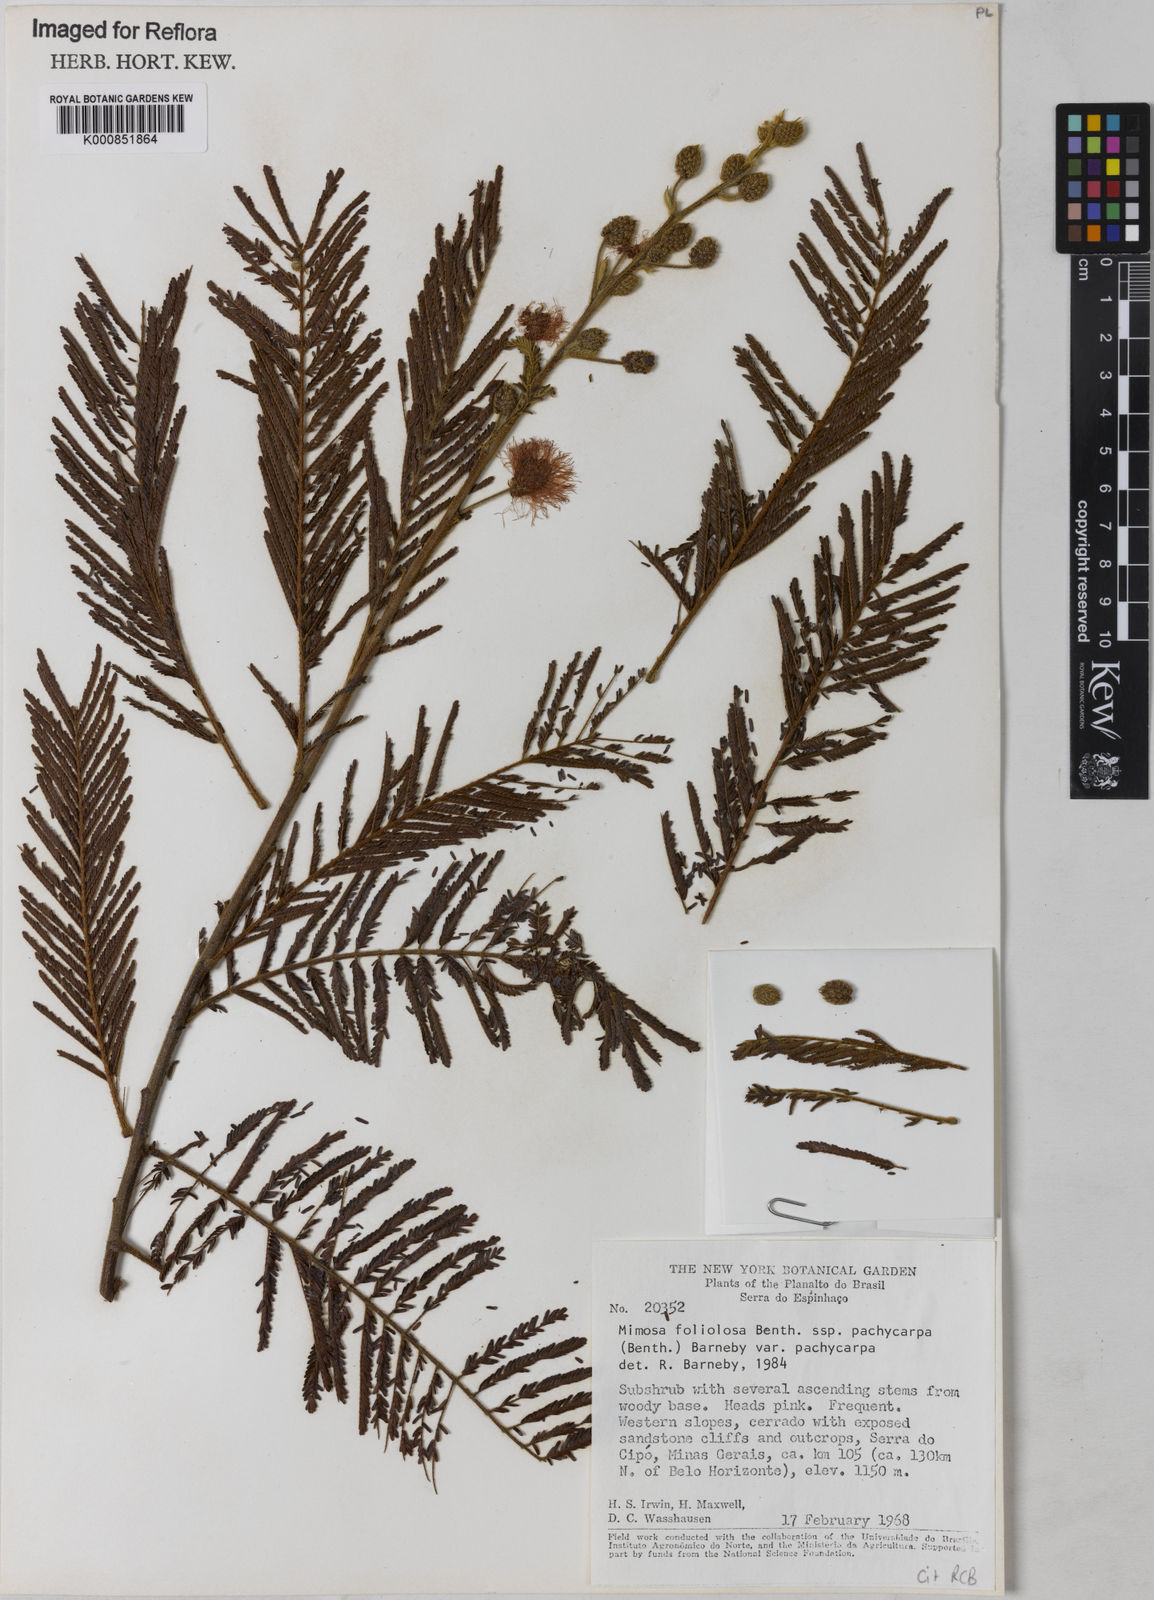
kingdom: Plantae
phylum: Tracheophyta
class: Magnoliopsida
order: Fabales
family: Fabaceae
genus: Mimosa
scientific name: Mimosa foliolosa
